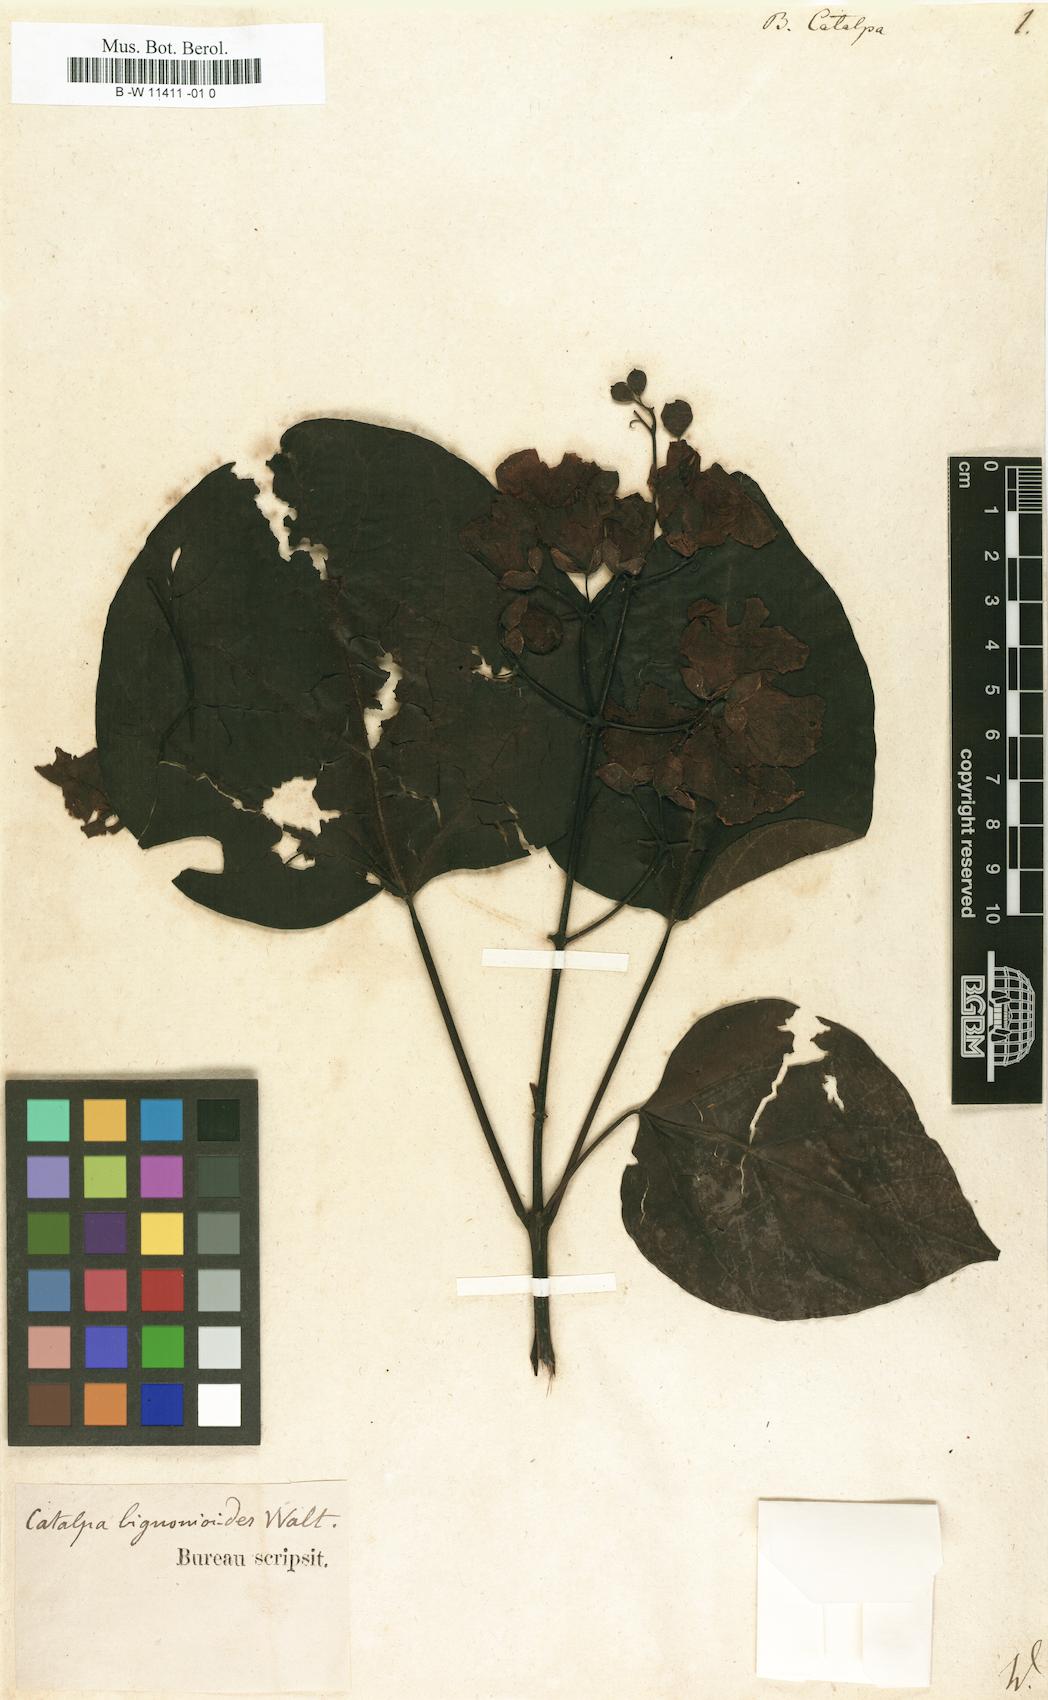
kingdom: Plantae
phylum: Tracheophyta
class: Magnoliopsida
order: Lamiales
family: Bignoniaceae
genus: Catalpa
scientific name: Catalpa bignonioides
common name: Southern catalpa
